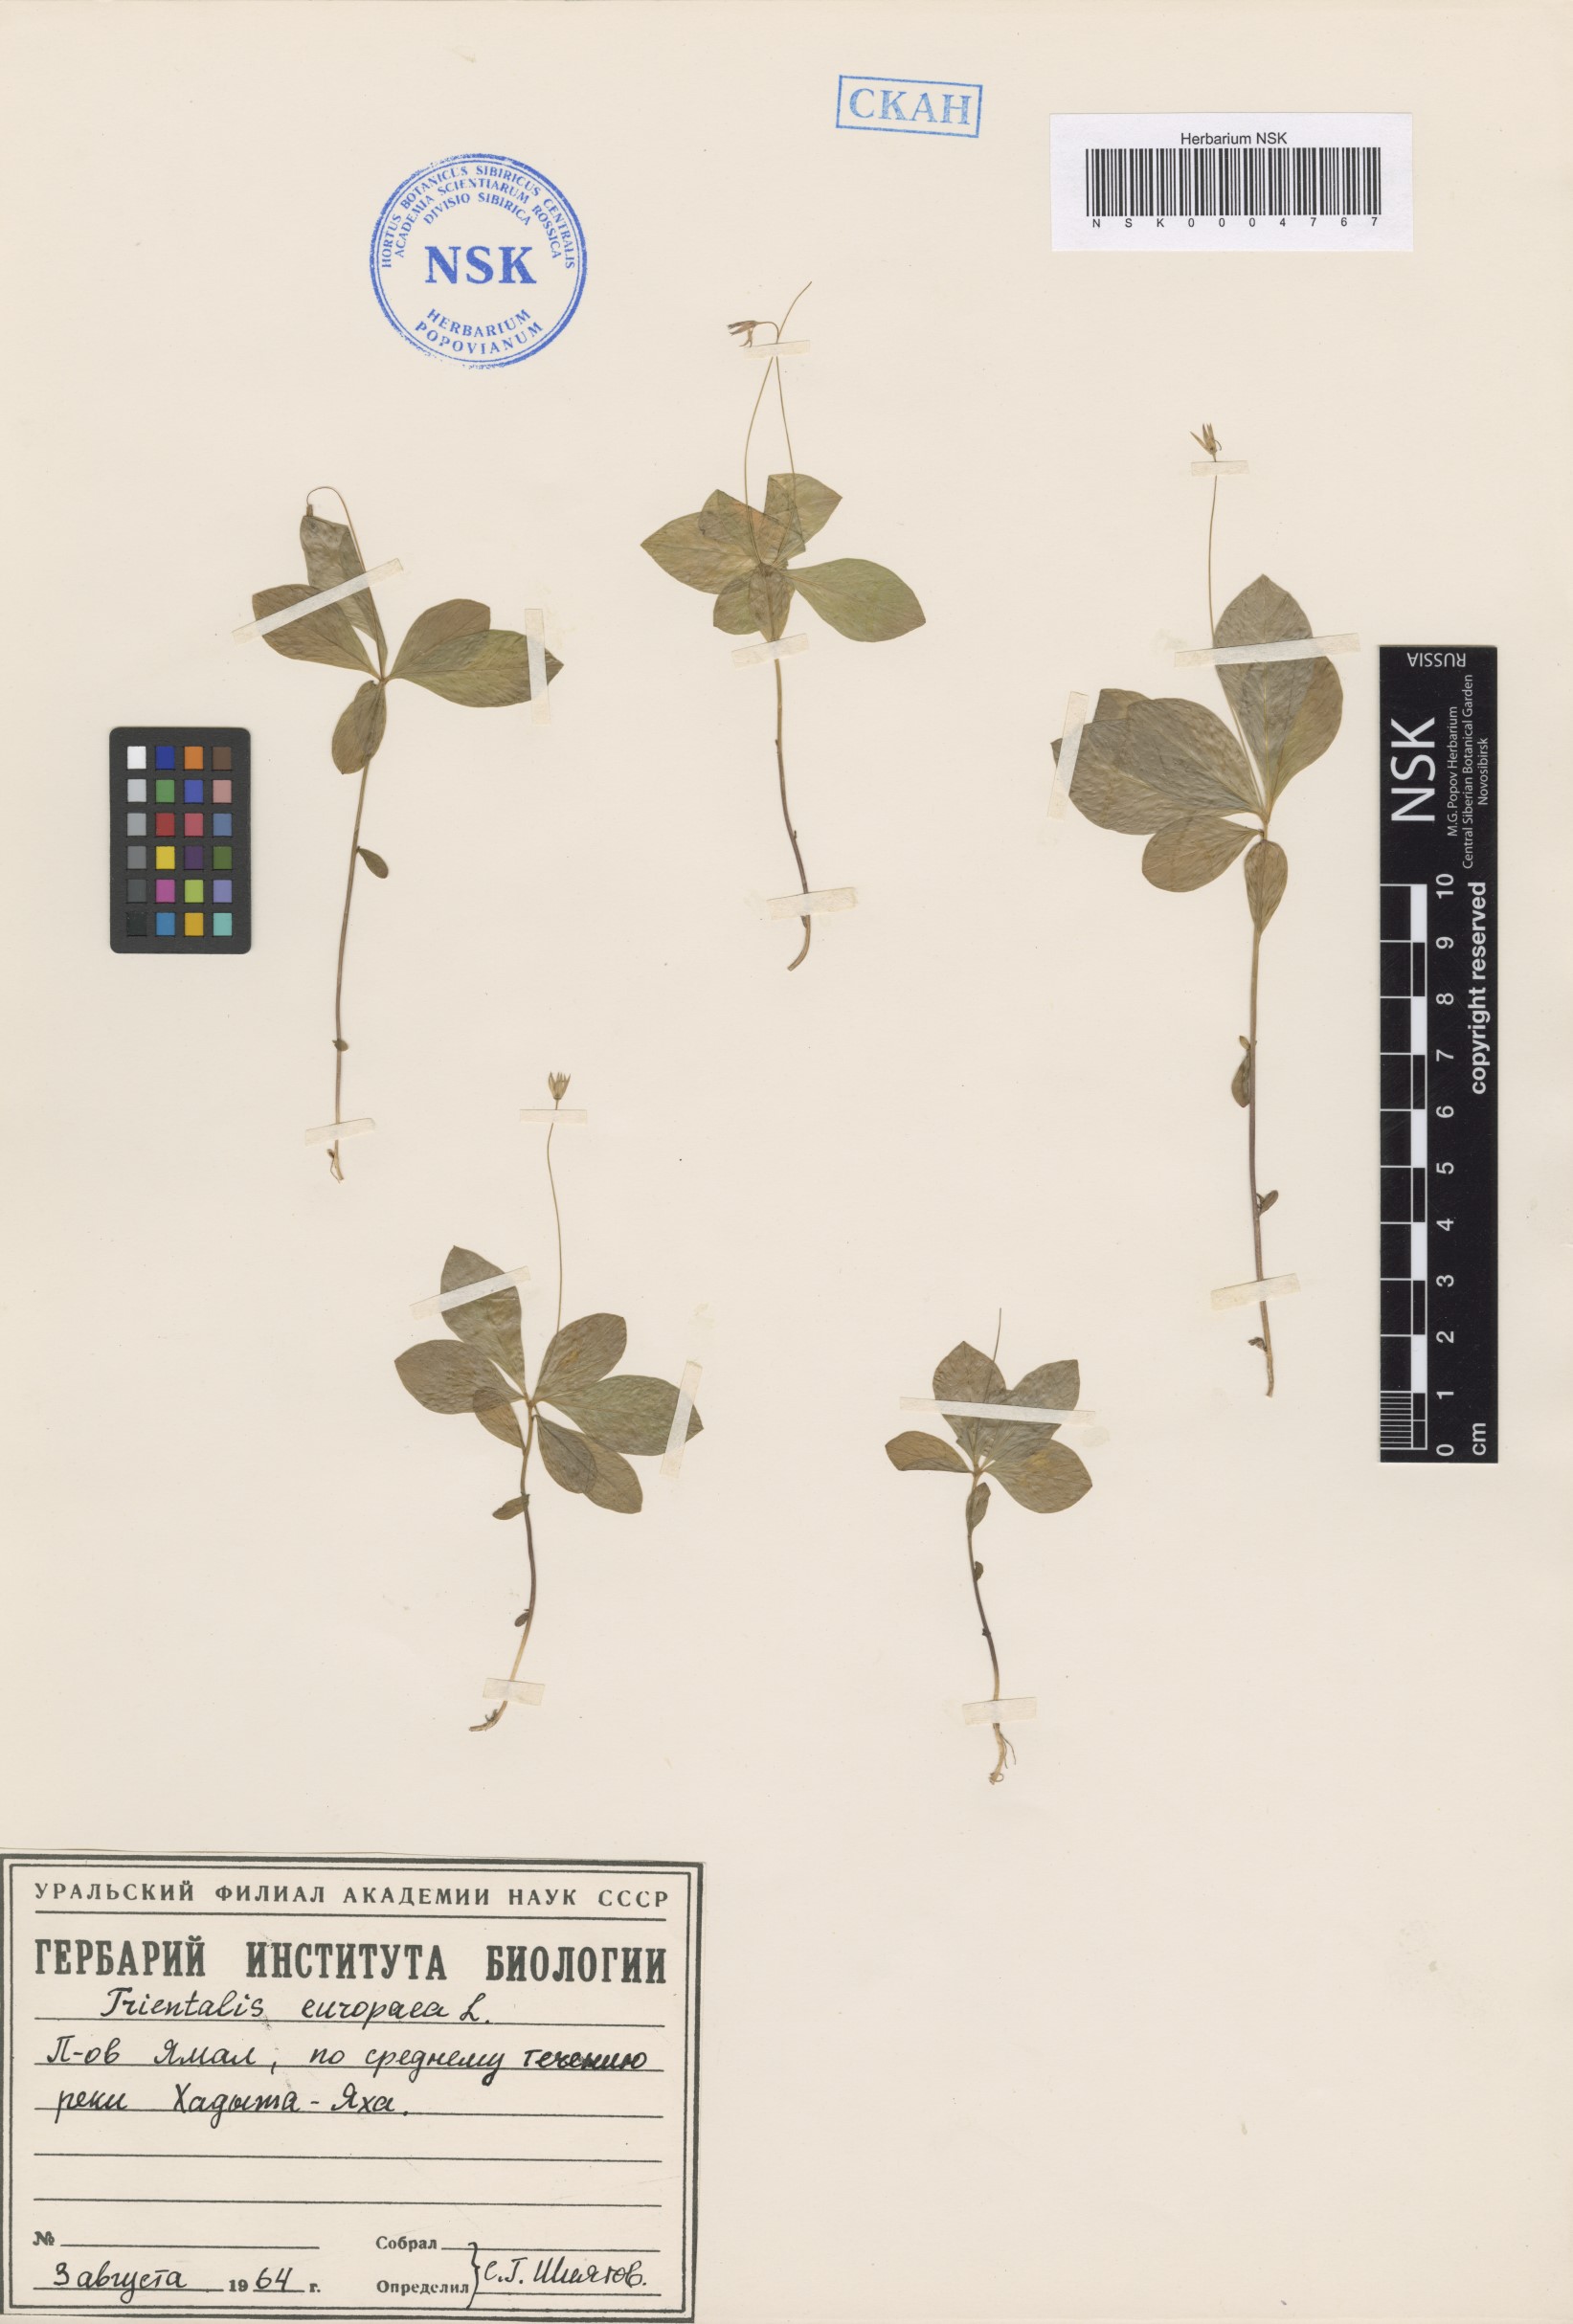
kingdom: Plantae
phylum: Tracheophyta
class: Magnoliopsida
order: Ericales
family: Primulaceae
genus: Lysimachia
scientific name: Lysimachia europaea
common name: Arctic starflower
